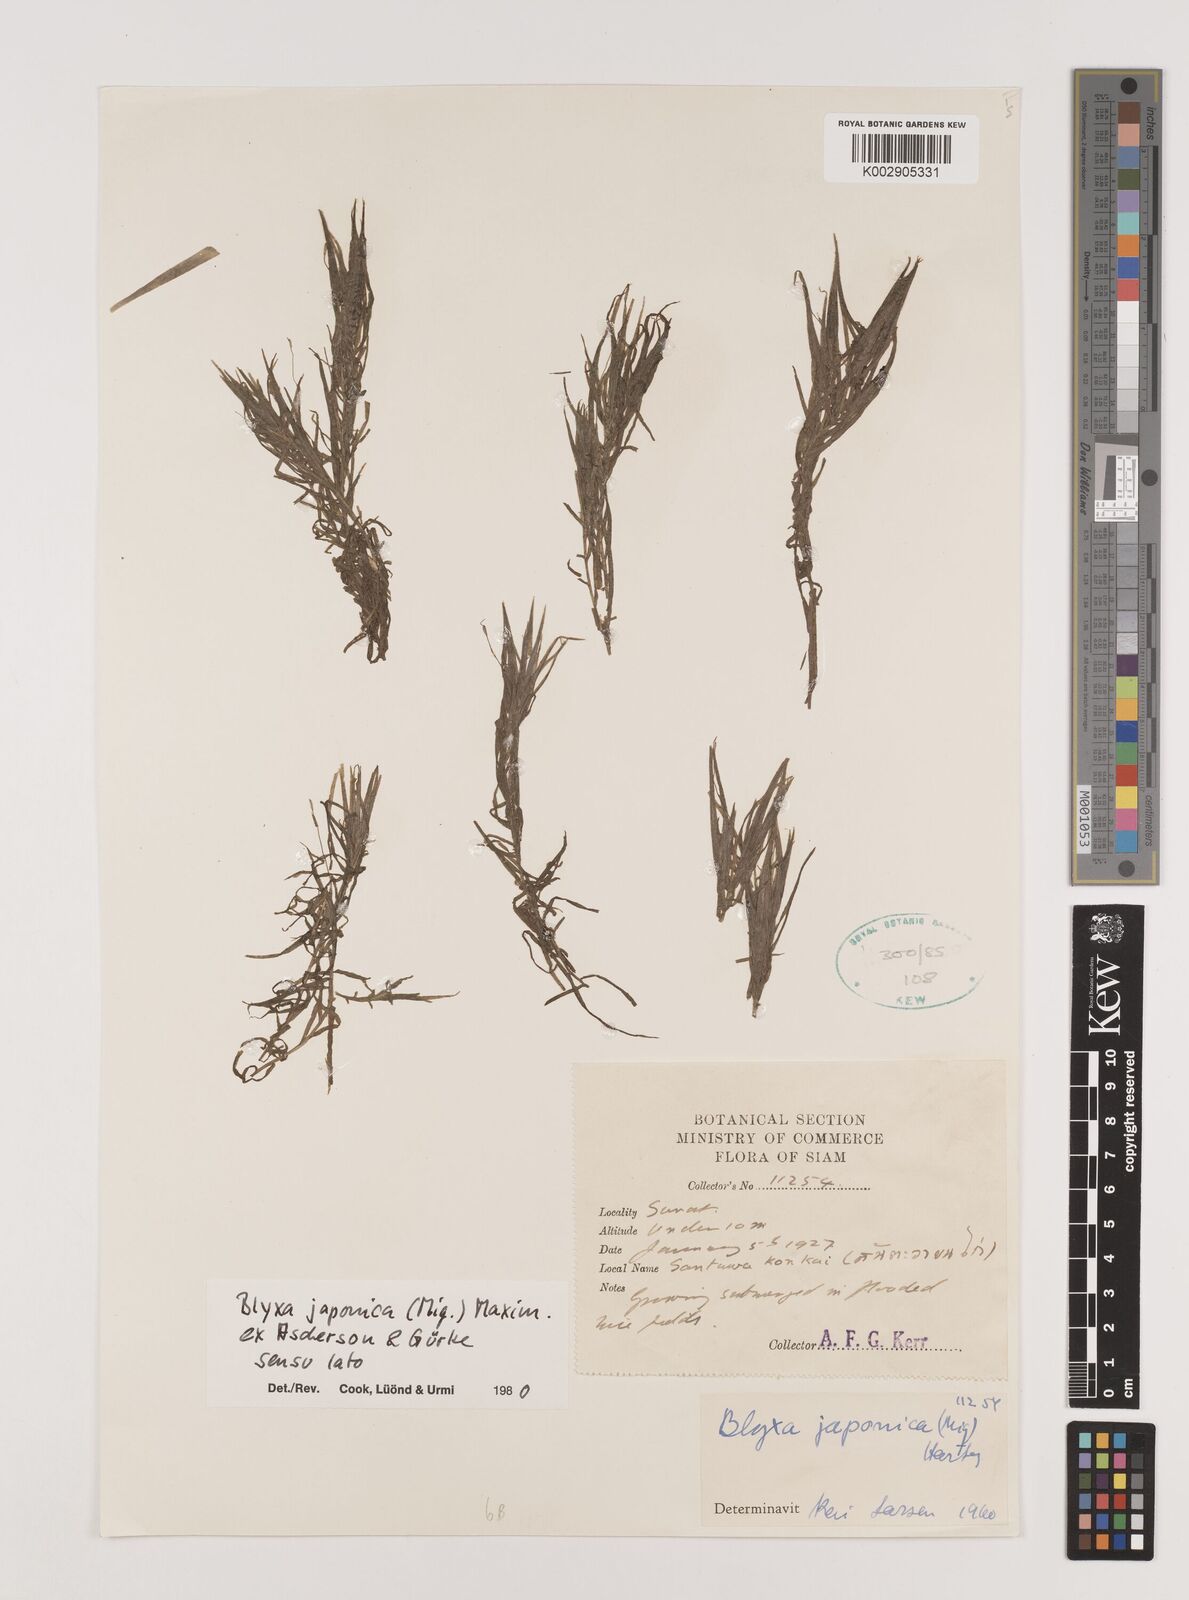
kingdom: Plantae
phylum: Tracheophyta
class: Liliopsida
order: Alismatales
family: Hydrocharitaceae
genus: Blyxa
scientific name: Blyxa japonica
